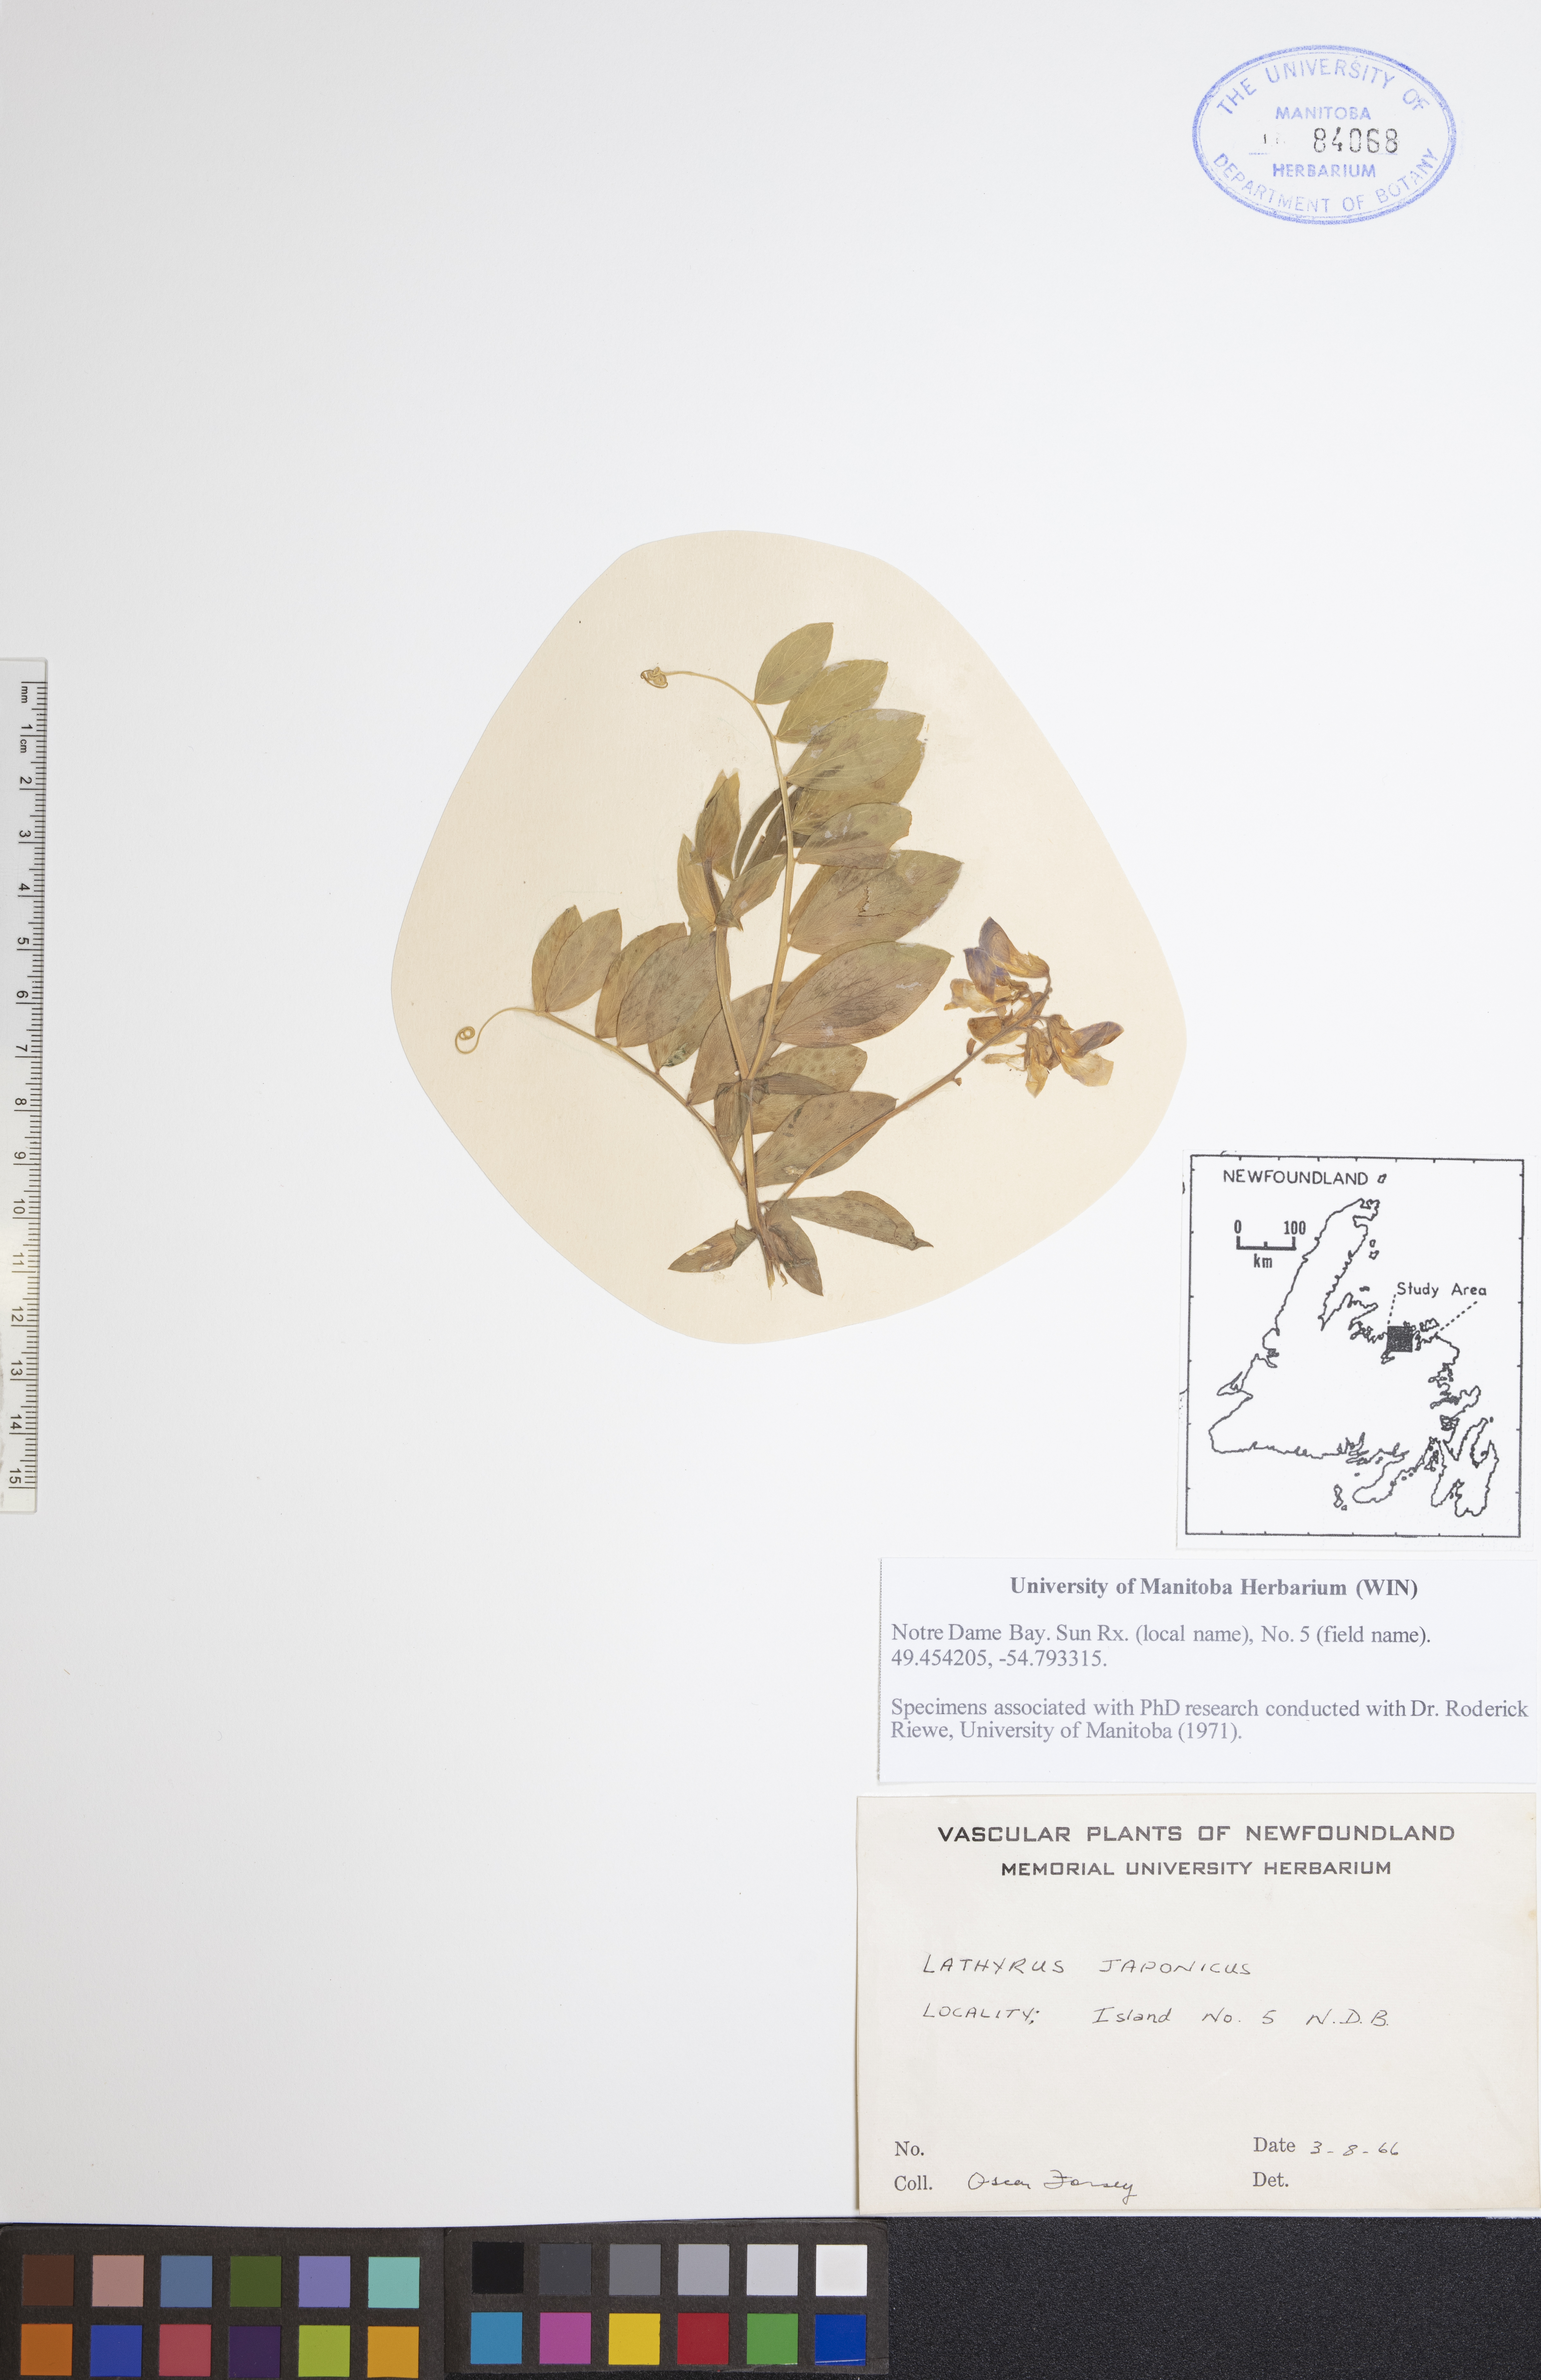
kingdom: Plantae
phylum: Tracheophyta
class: Magnoliopsida
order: Fabales
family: Fabaceae
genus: Lathyrus
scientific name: Lathyrus japonicus
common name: Sea pea
